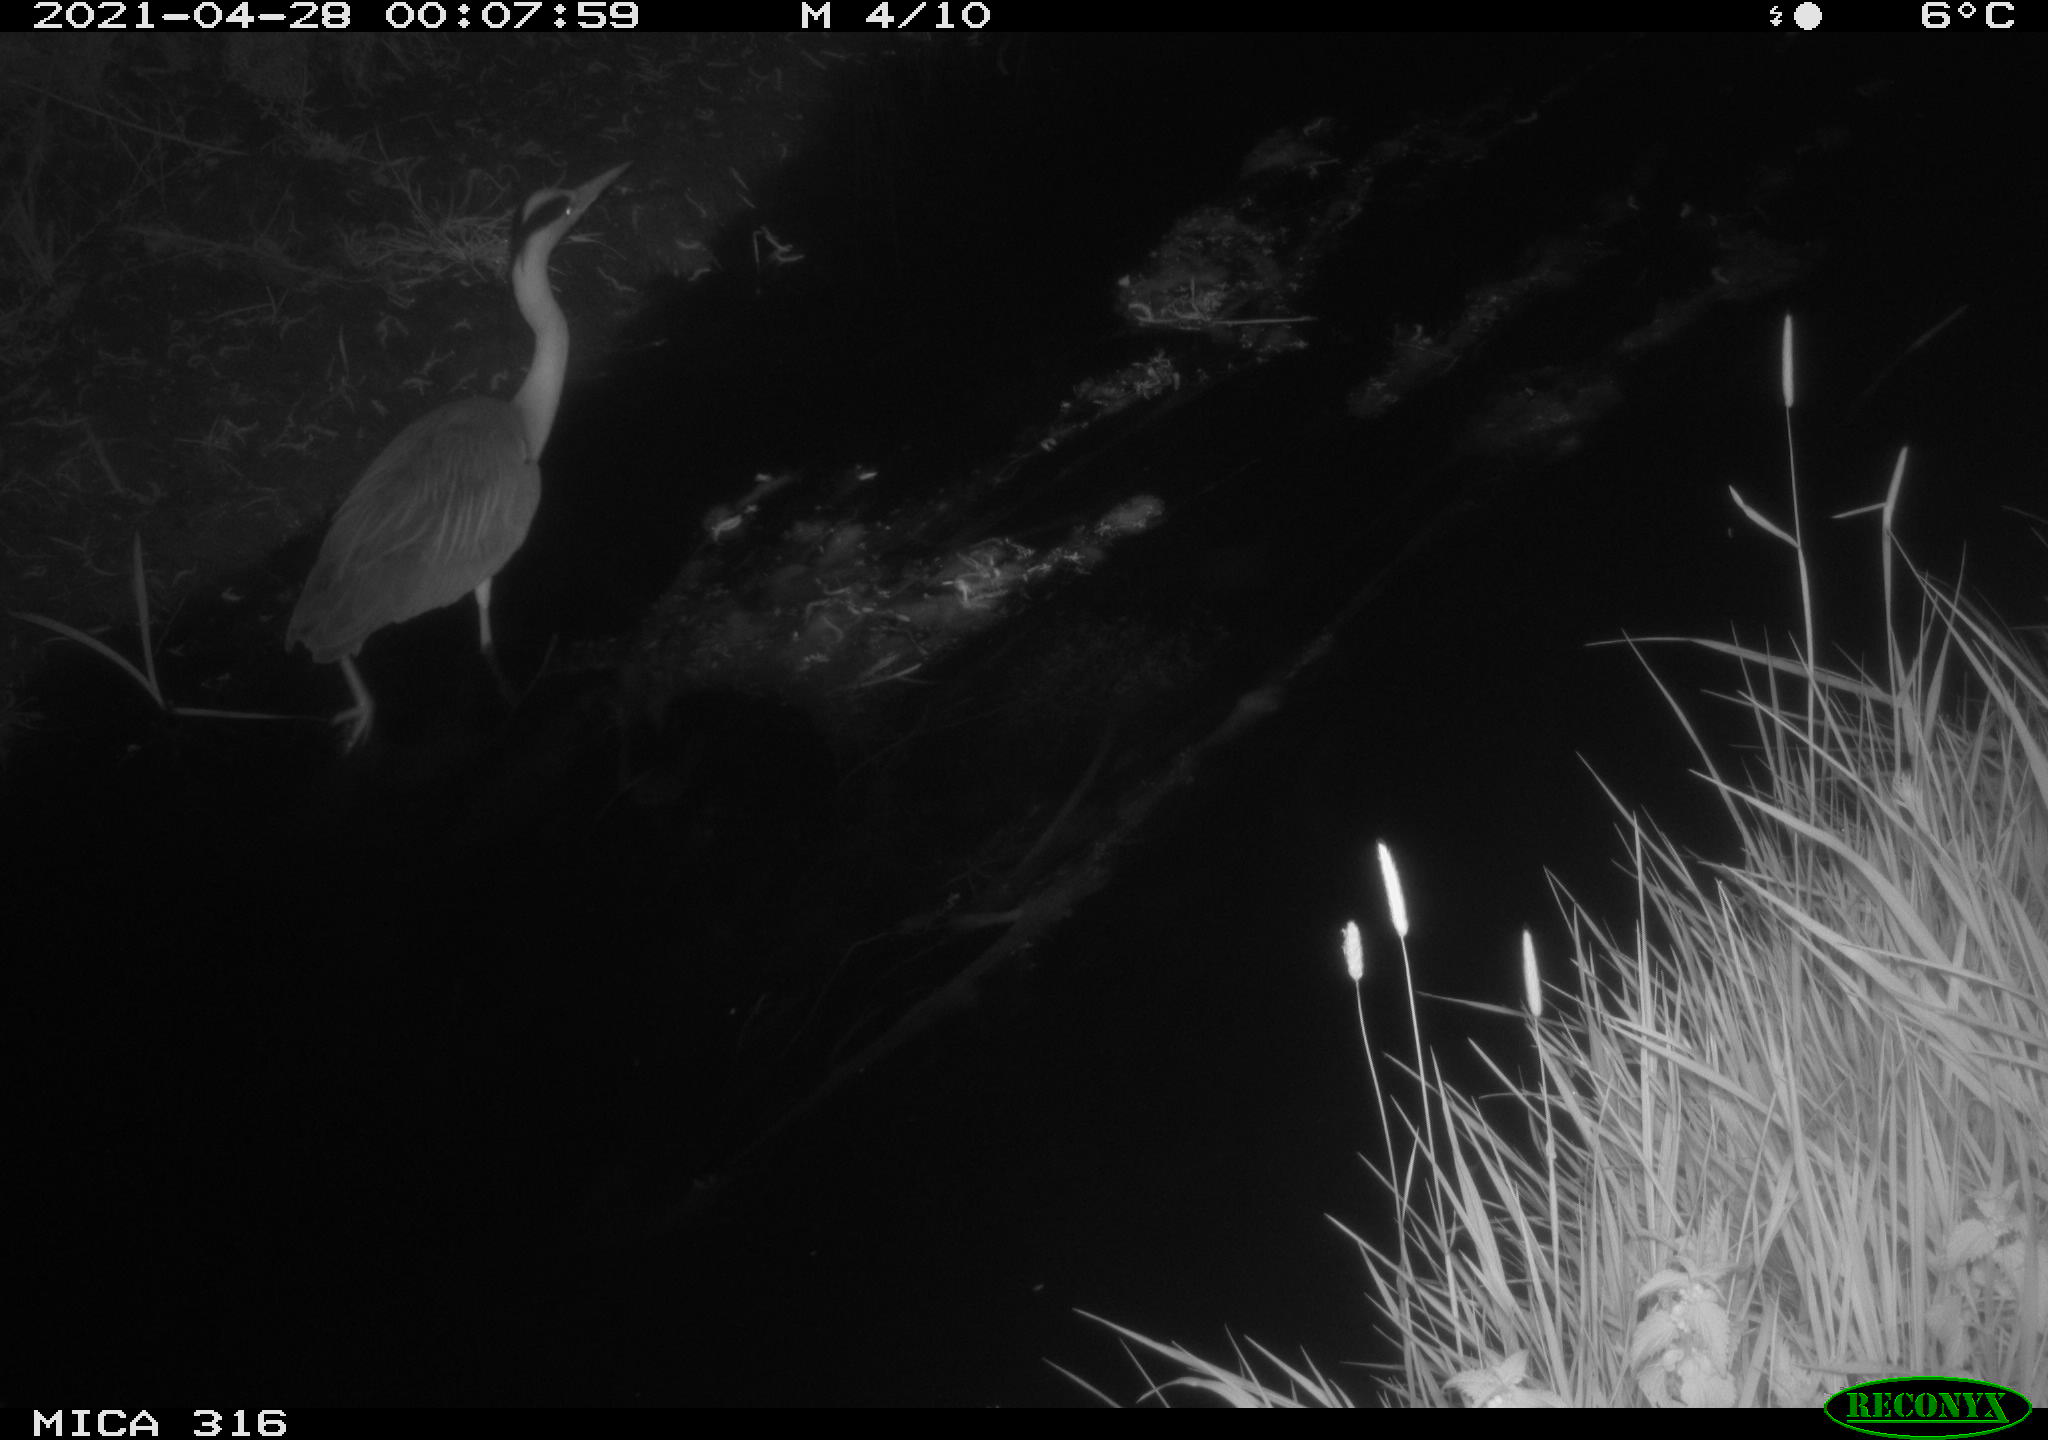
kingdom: Animalia
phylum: Chordata
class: Aves
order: Pelecaniformes
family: Ardeidae
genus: Ardea
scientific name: Ardea
